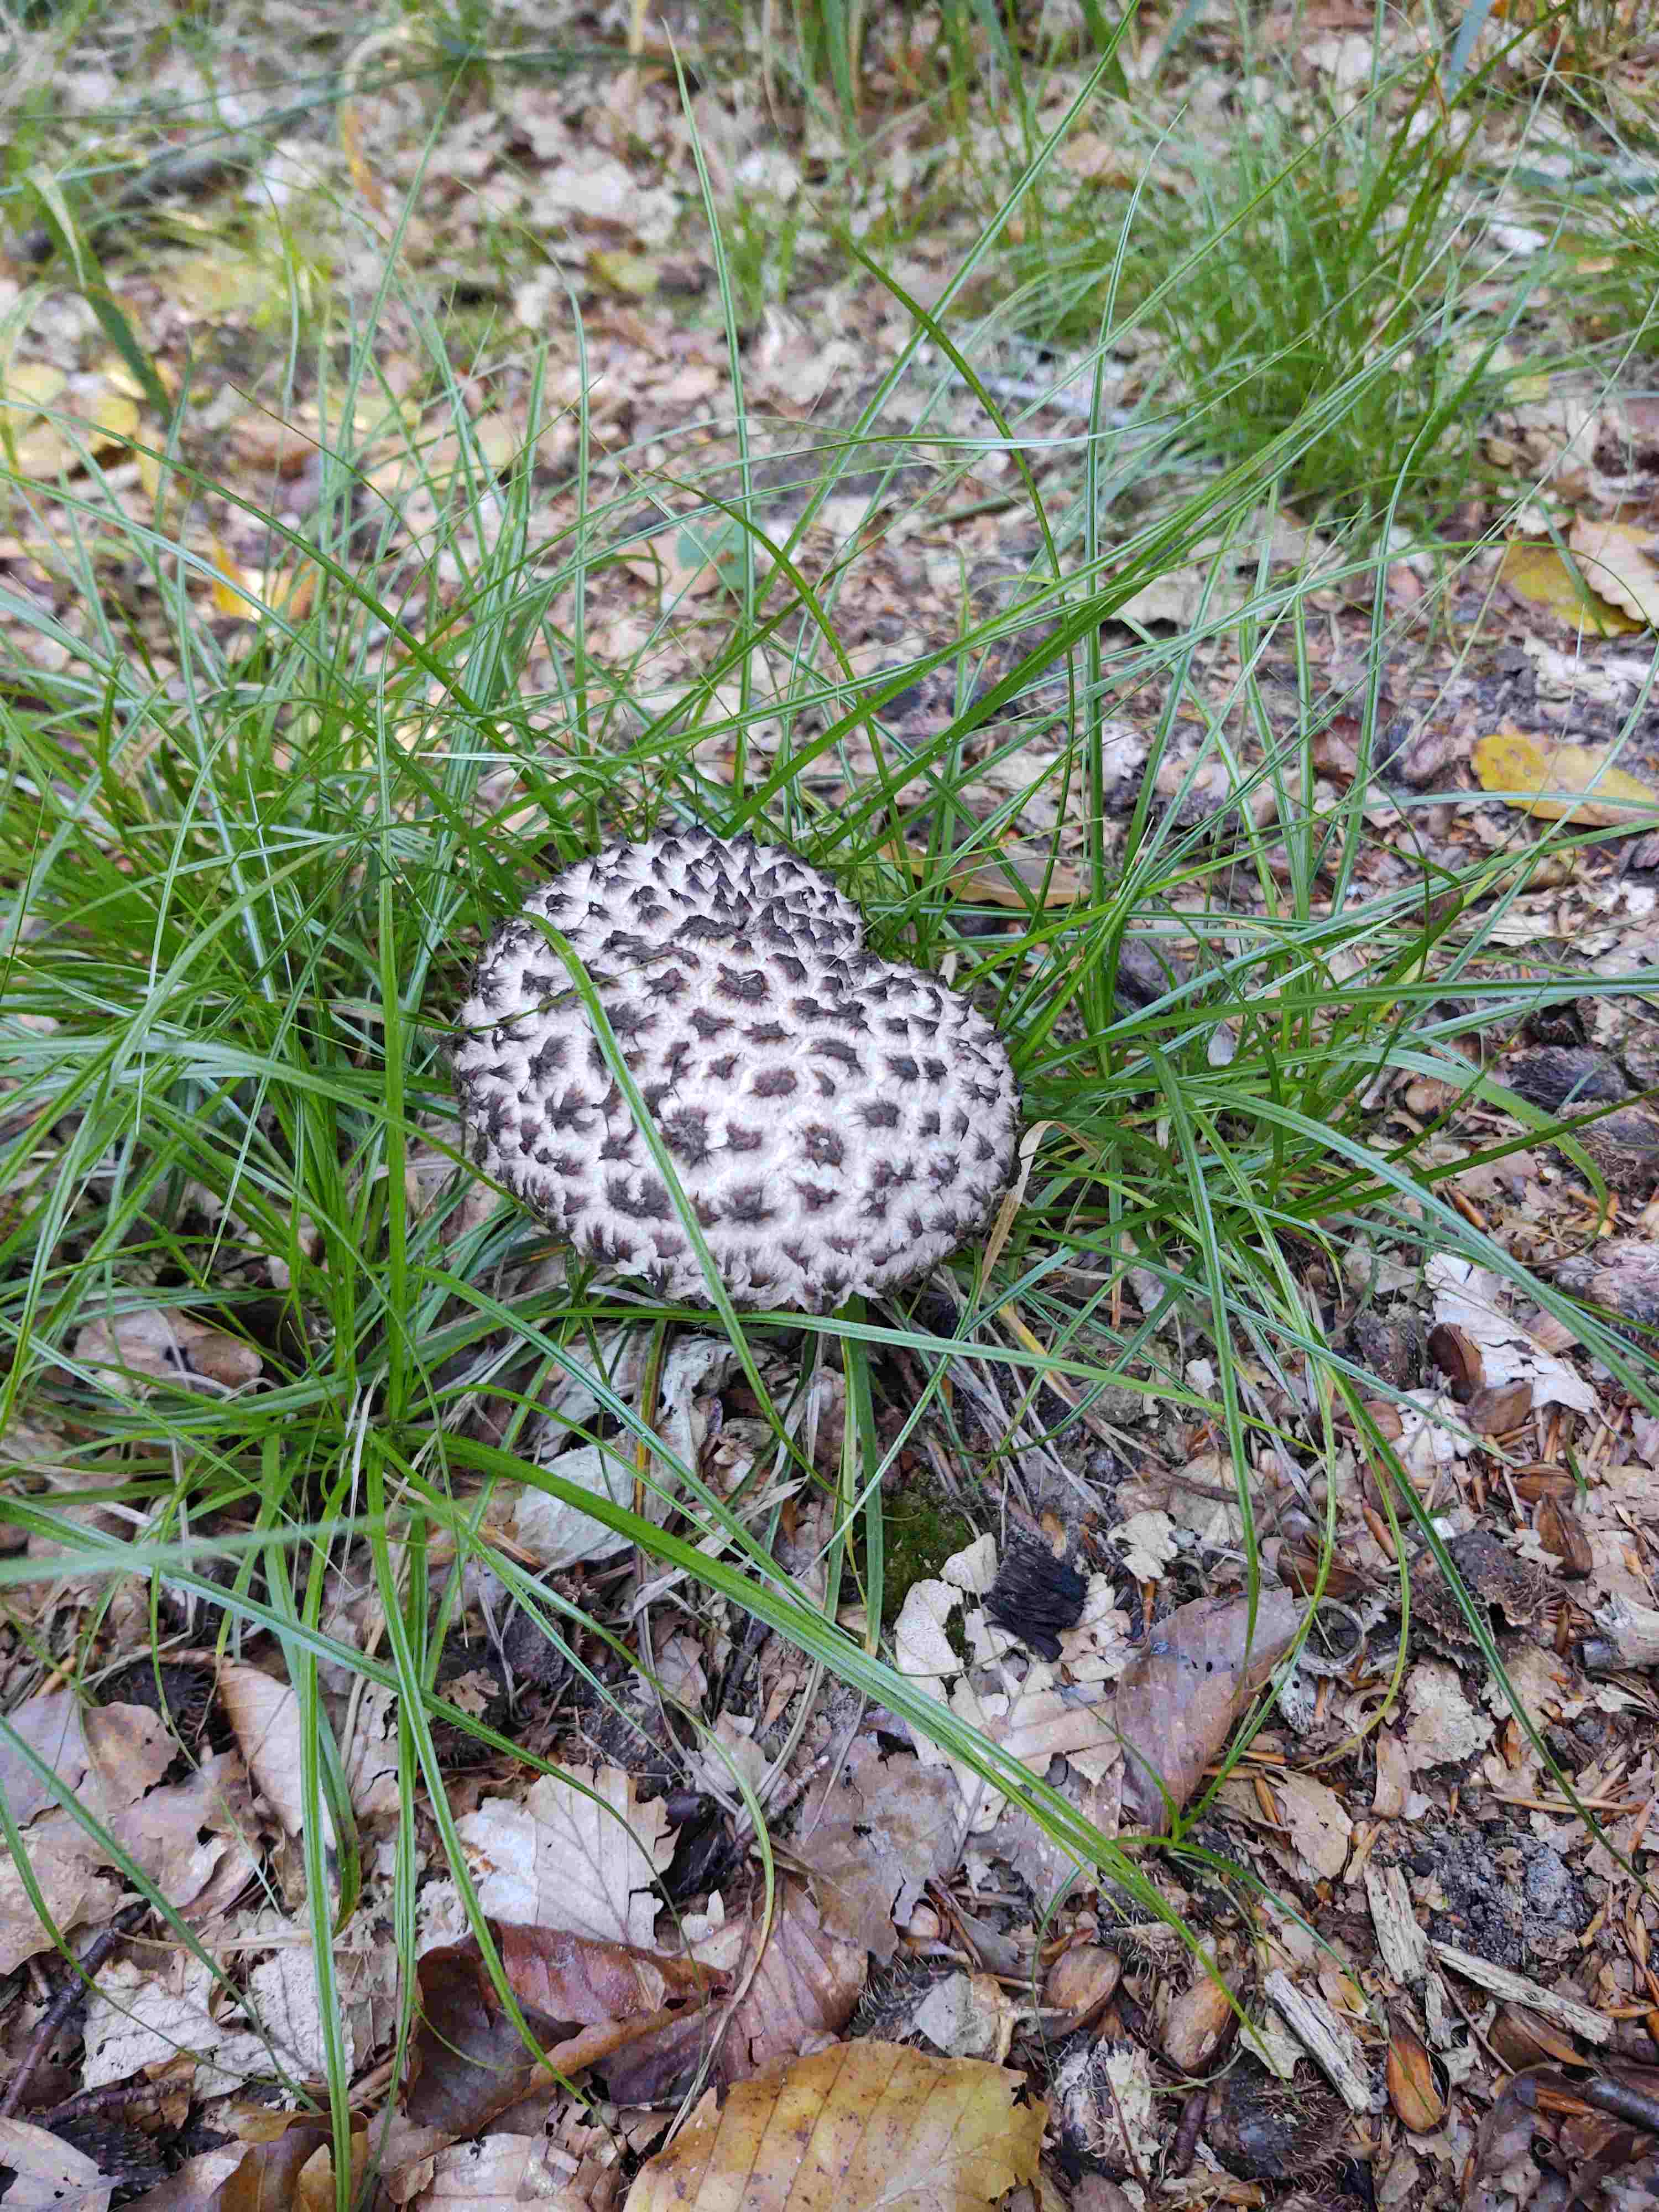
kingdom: Fungi
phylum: Basidiomycota
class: Agaricomycetes
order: Boletales
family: Boletaceae
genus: Strobilomyces
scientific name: Strobilomyces strobilaceus
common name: koglerørhat
